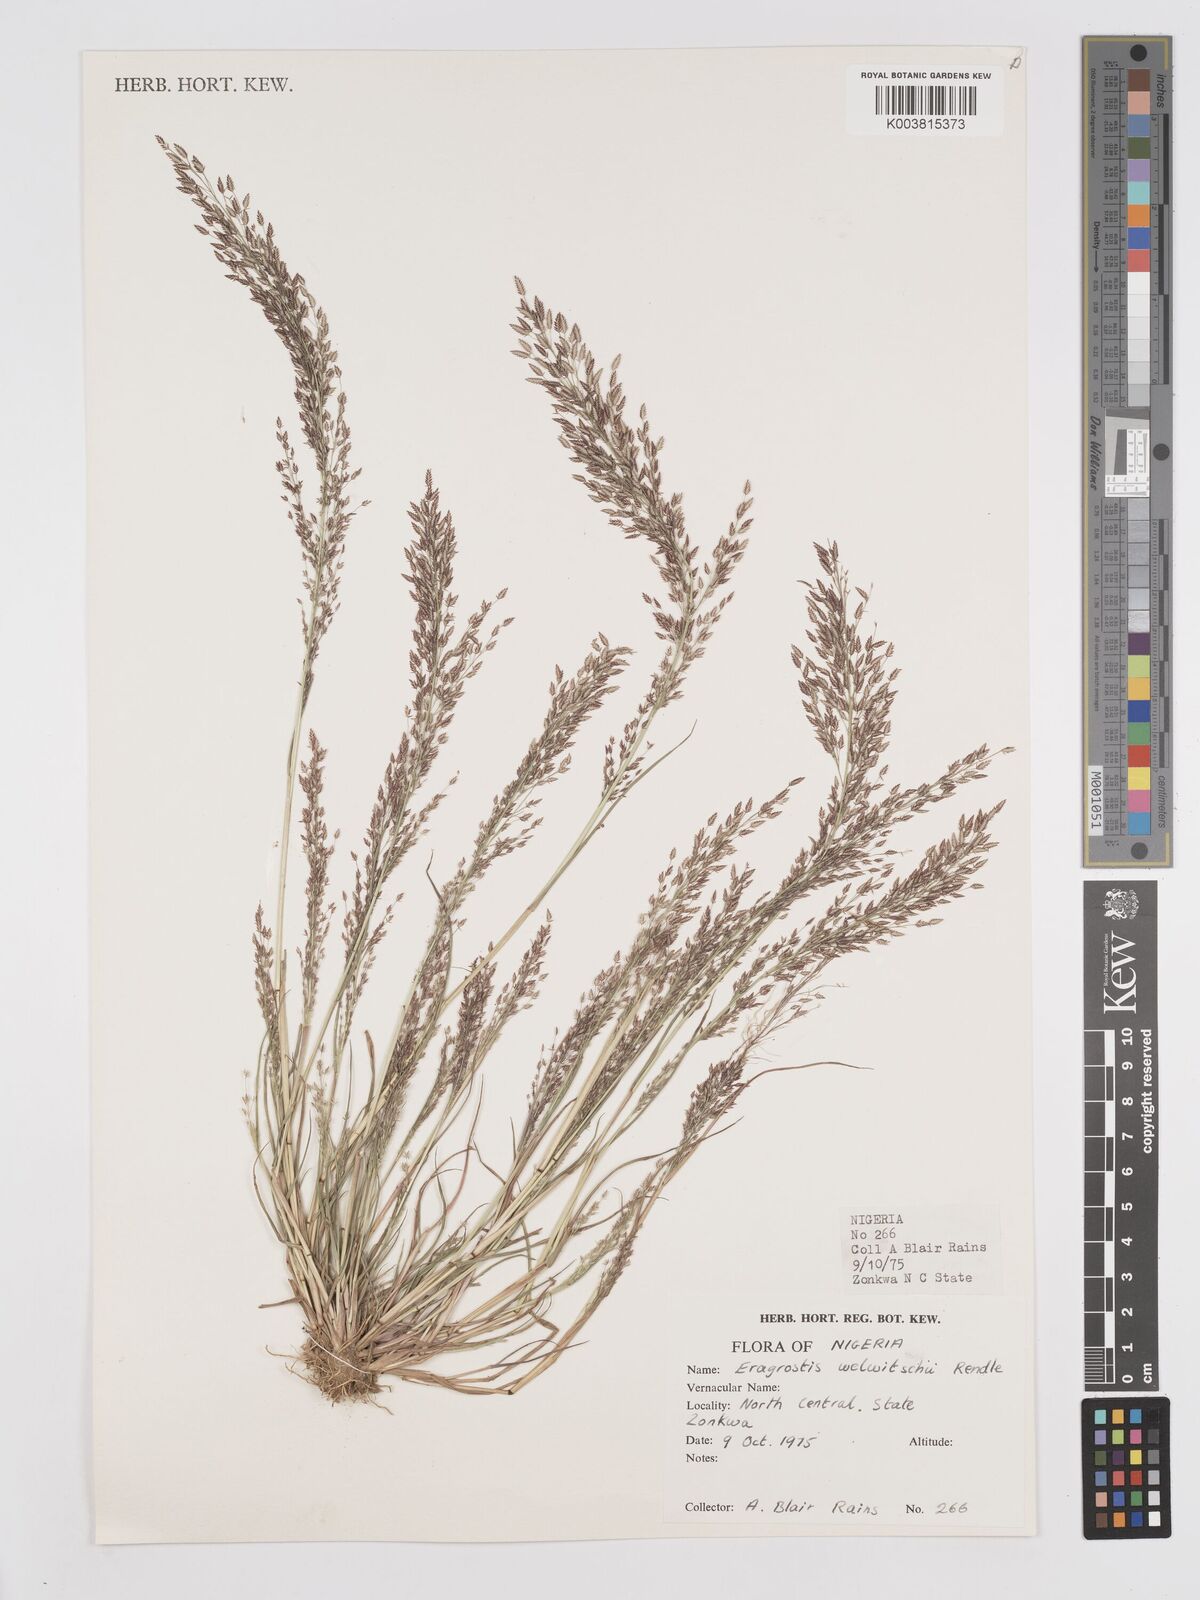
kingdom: Plantae
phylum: Tracheophyta
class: Liliopsida
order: Poales
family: Poaceae
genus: Eragrostis
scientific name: Eragrostis welwitschii
